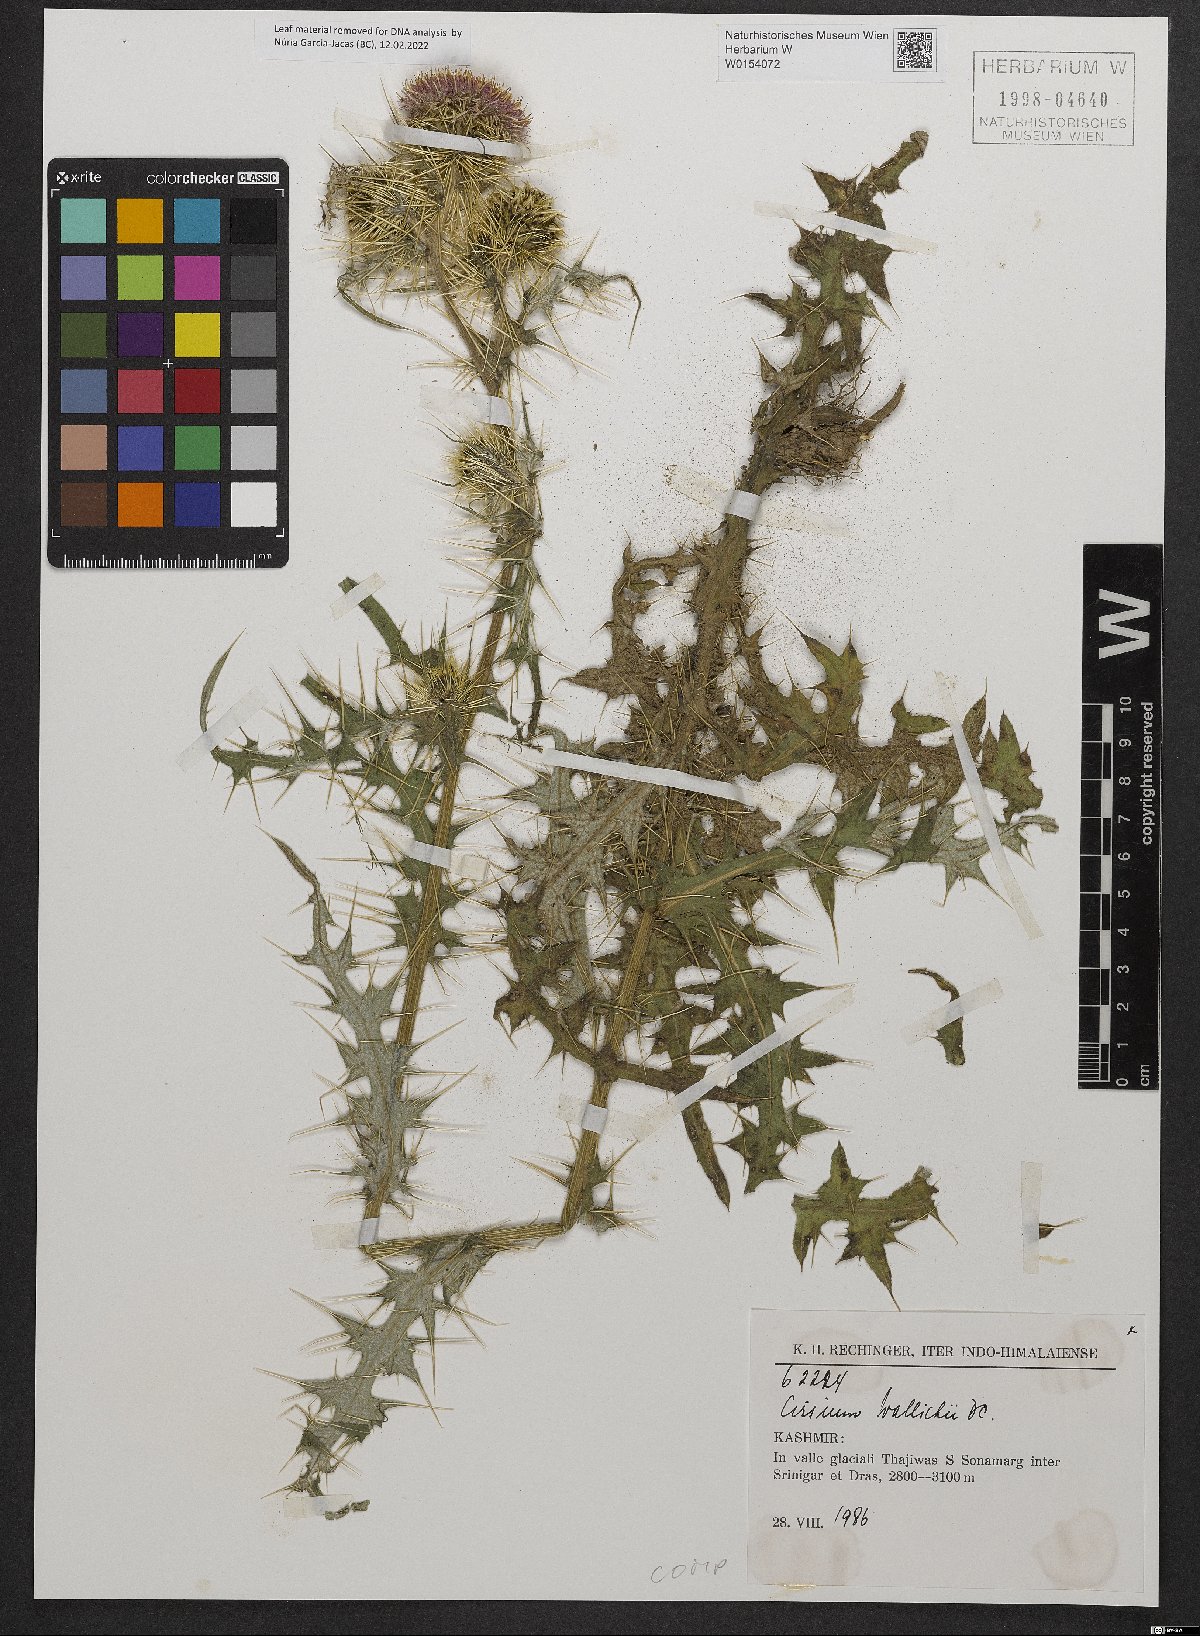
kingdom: Plantae
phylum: Tracheophyta
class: Magnoliopsida
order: Asterales
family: Asteraceae
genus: Cirsium
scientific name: Cirsium wallichii
